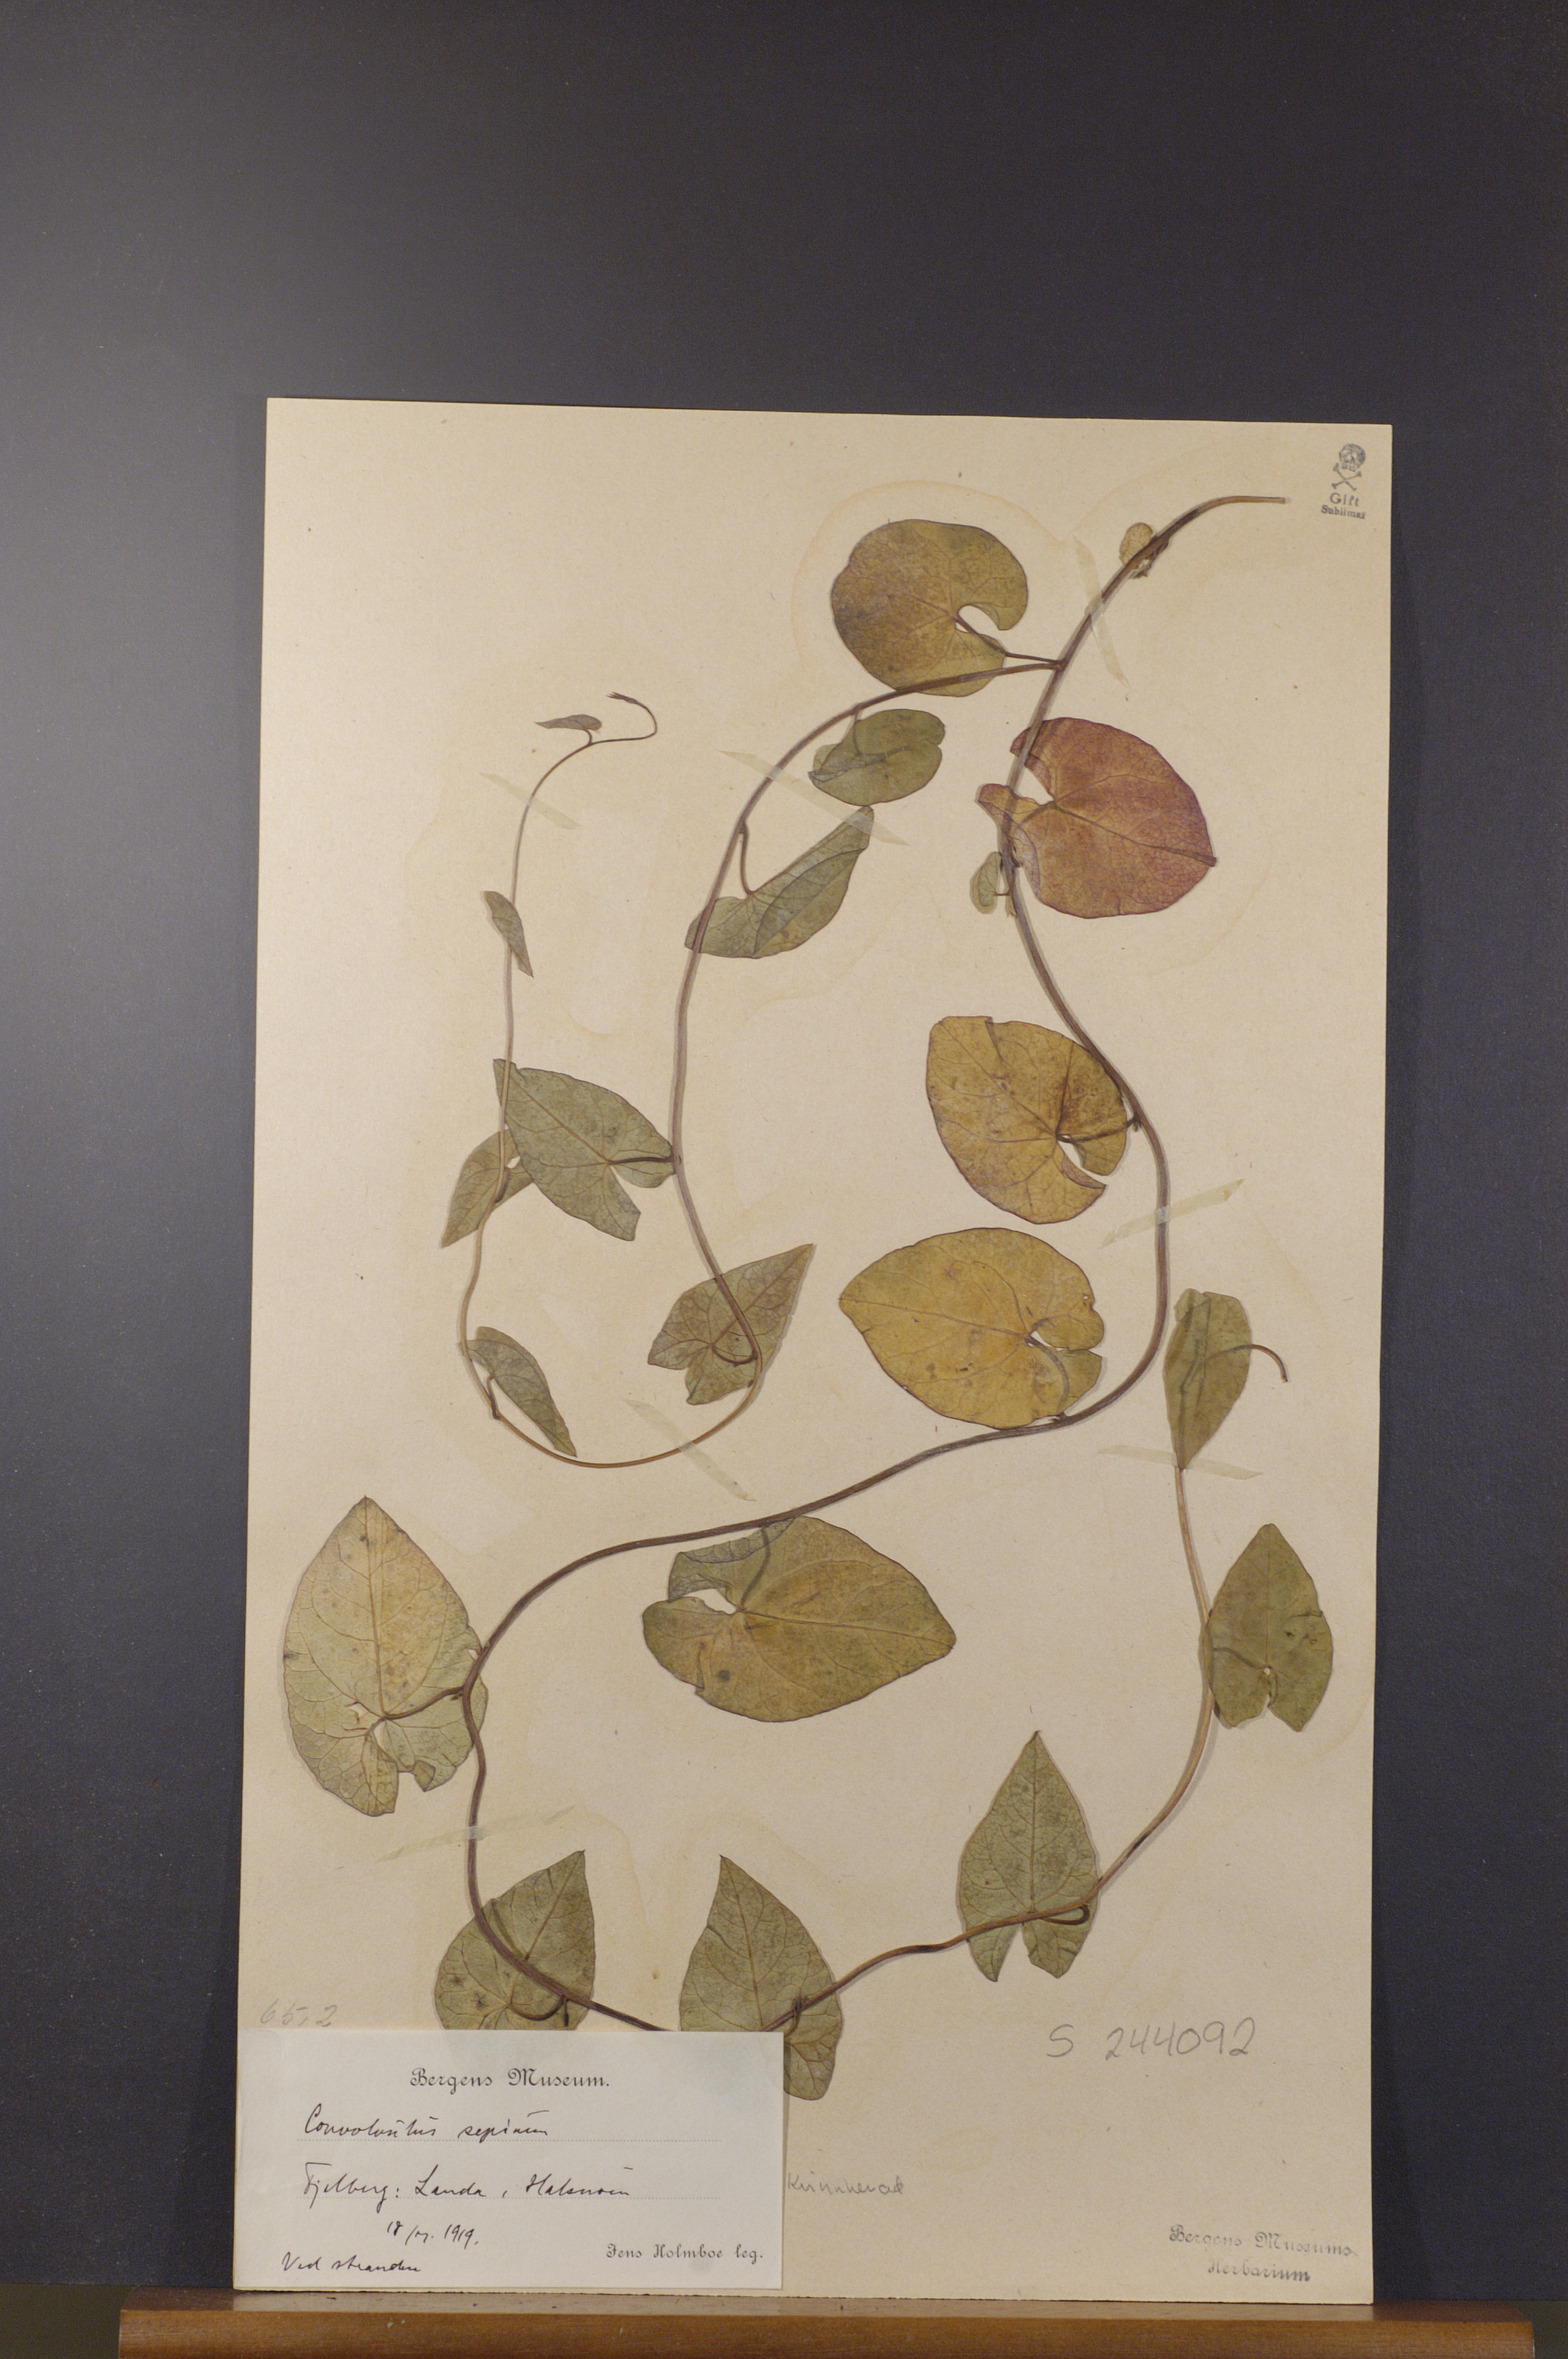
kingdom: Plantae
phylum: Tracheophyta
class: Magnoliopsida
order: Solanales
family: Convolvulaceae
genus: Calystegia
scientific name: Calystegia sepium
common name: Hedge bindweed
